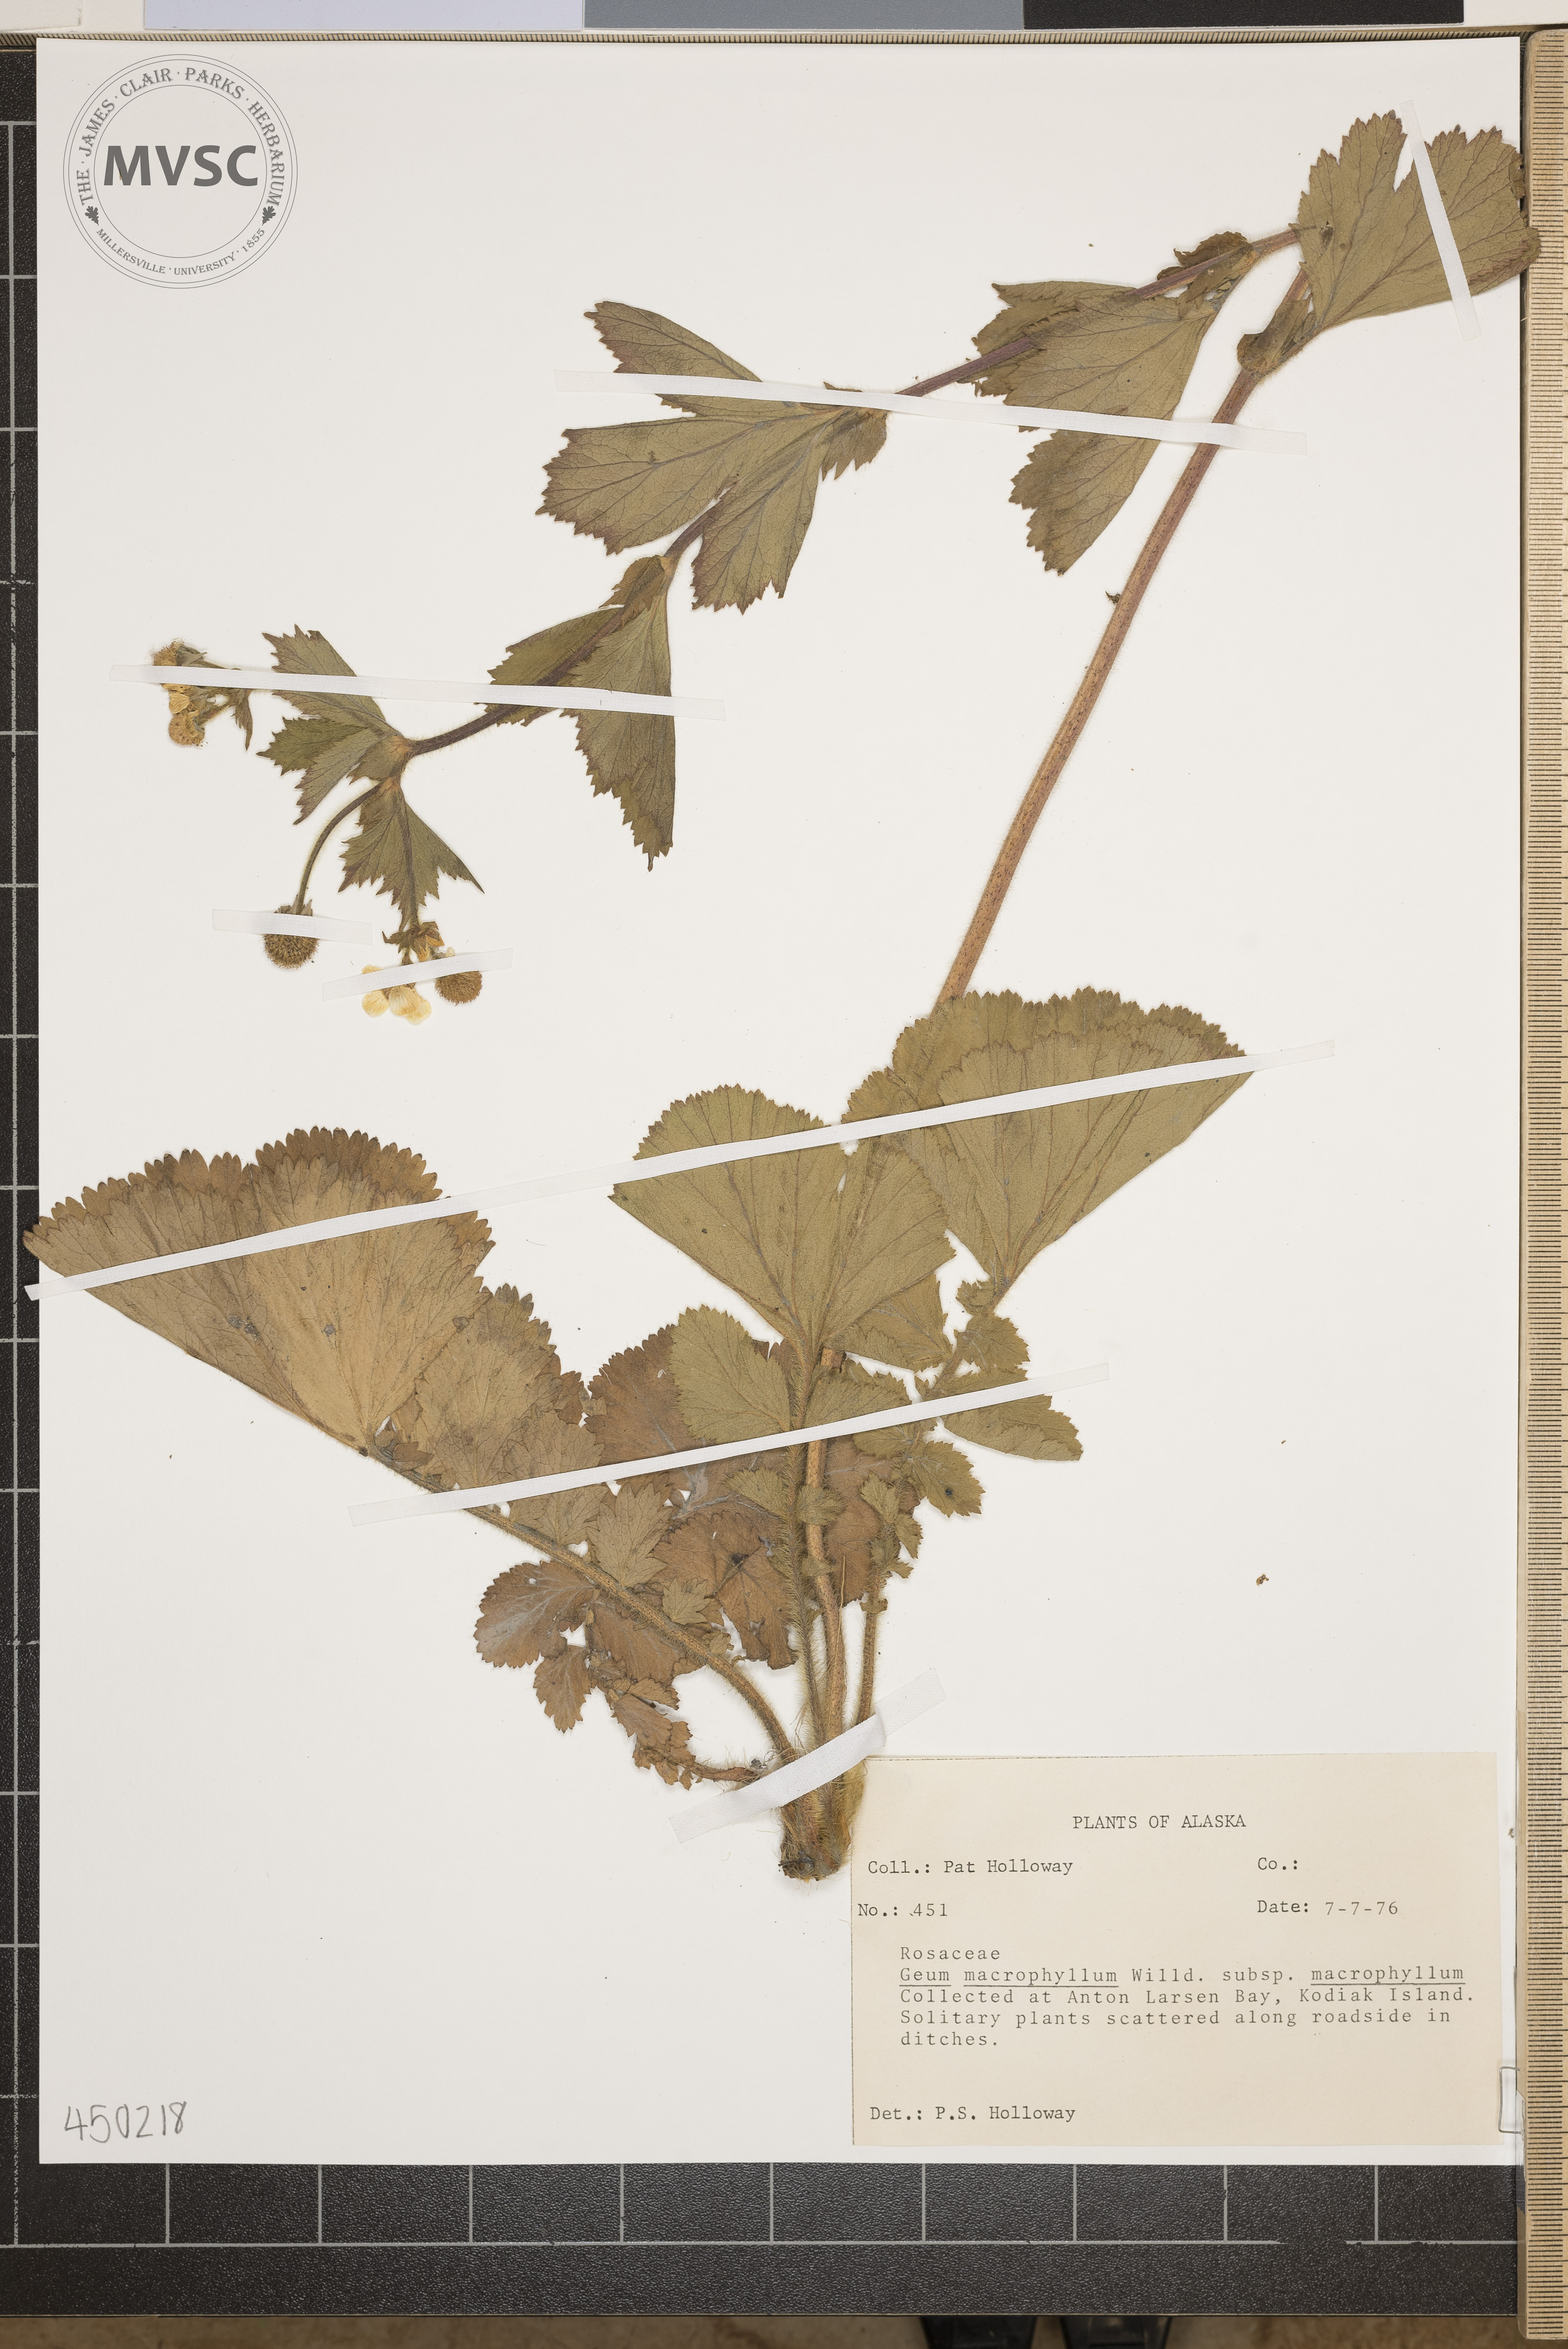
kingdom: Plantae
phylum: Tracheophyta
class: Magnoliopsida
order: Rosales
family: Rosaceae
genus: Geum
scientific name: Geum macrophyllum
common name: largeleaf avens
